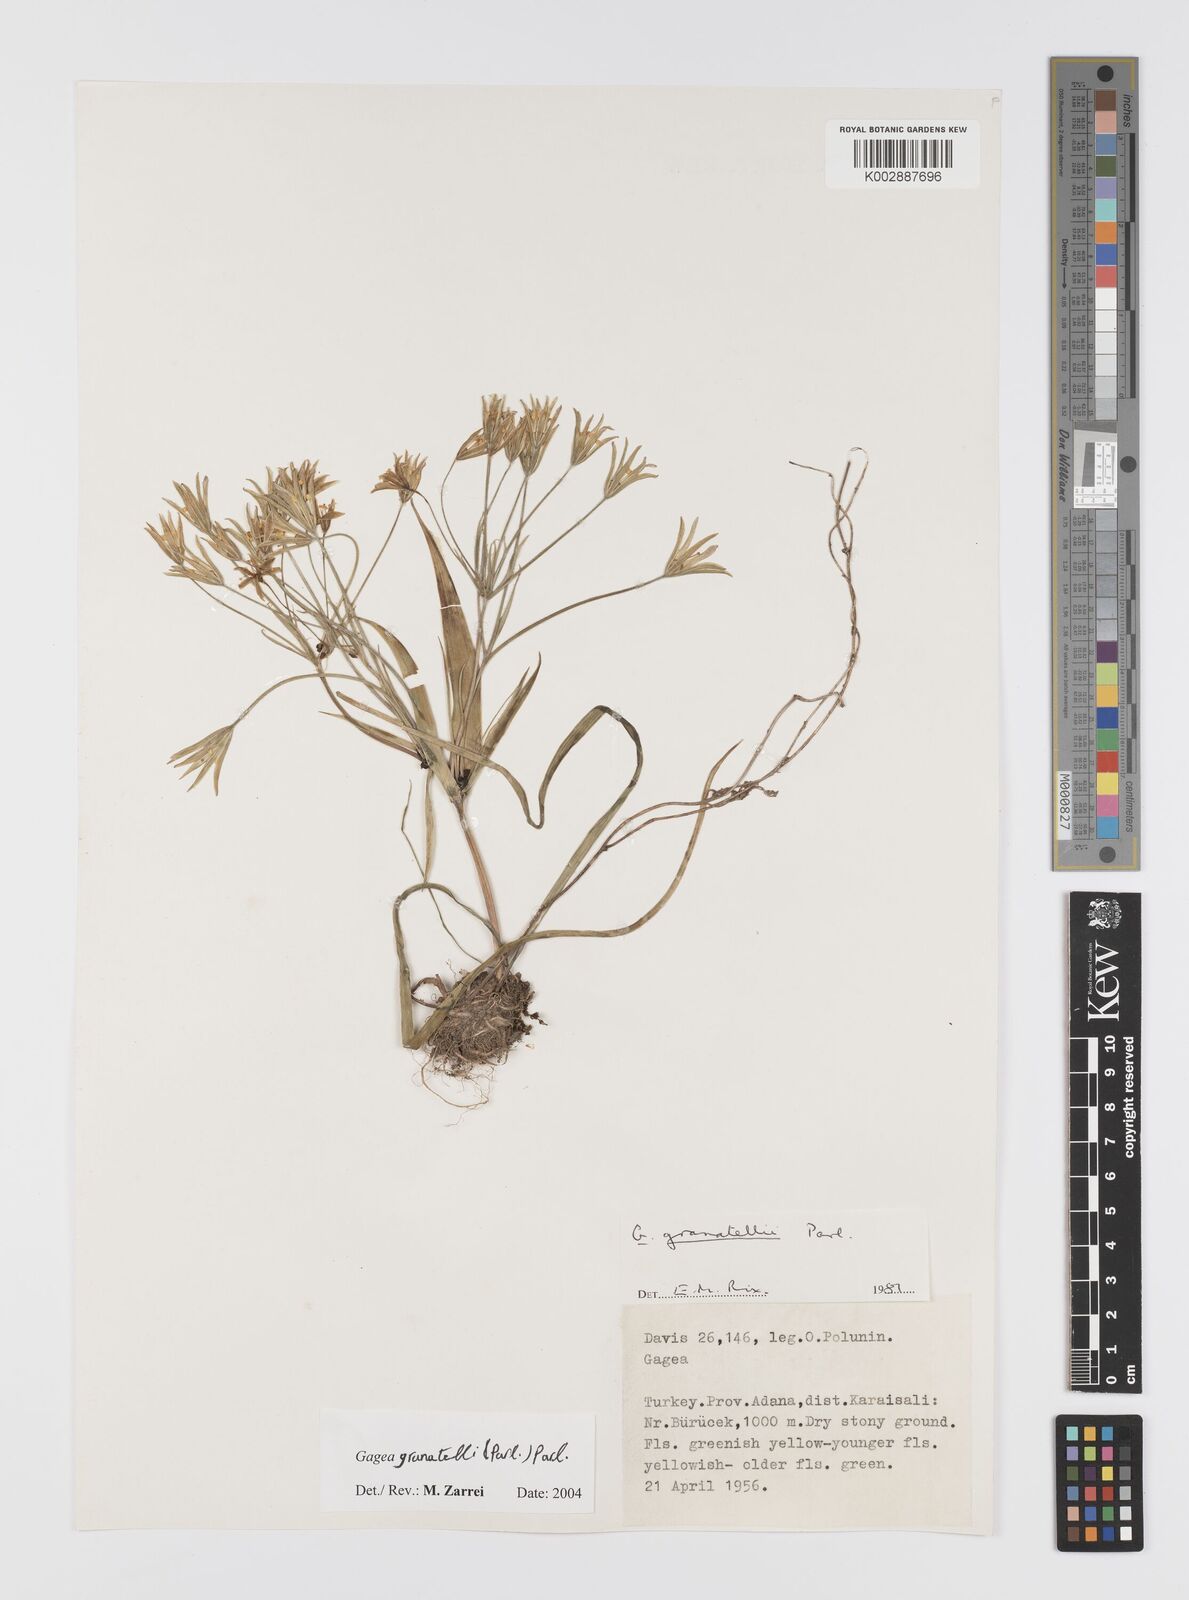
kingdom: Plantae
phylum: Tracheophyta
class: Liliopsida
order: Liliales
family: Liliaceae
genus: Gagea
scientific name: Gagea dubia
